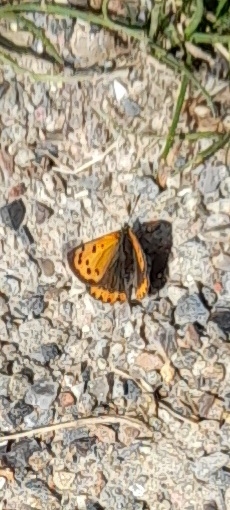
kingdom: Animalia
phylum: Arthropoda
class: Insecta
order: Lepidoptera
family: Lycaenidae
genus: Lycaena
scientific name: Lycaena phlaeas
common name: Lille ildfugl
